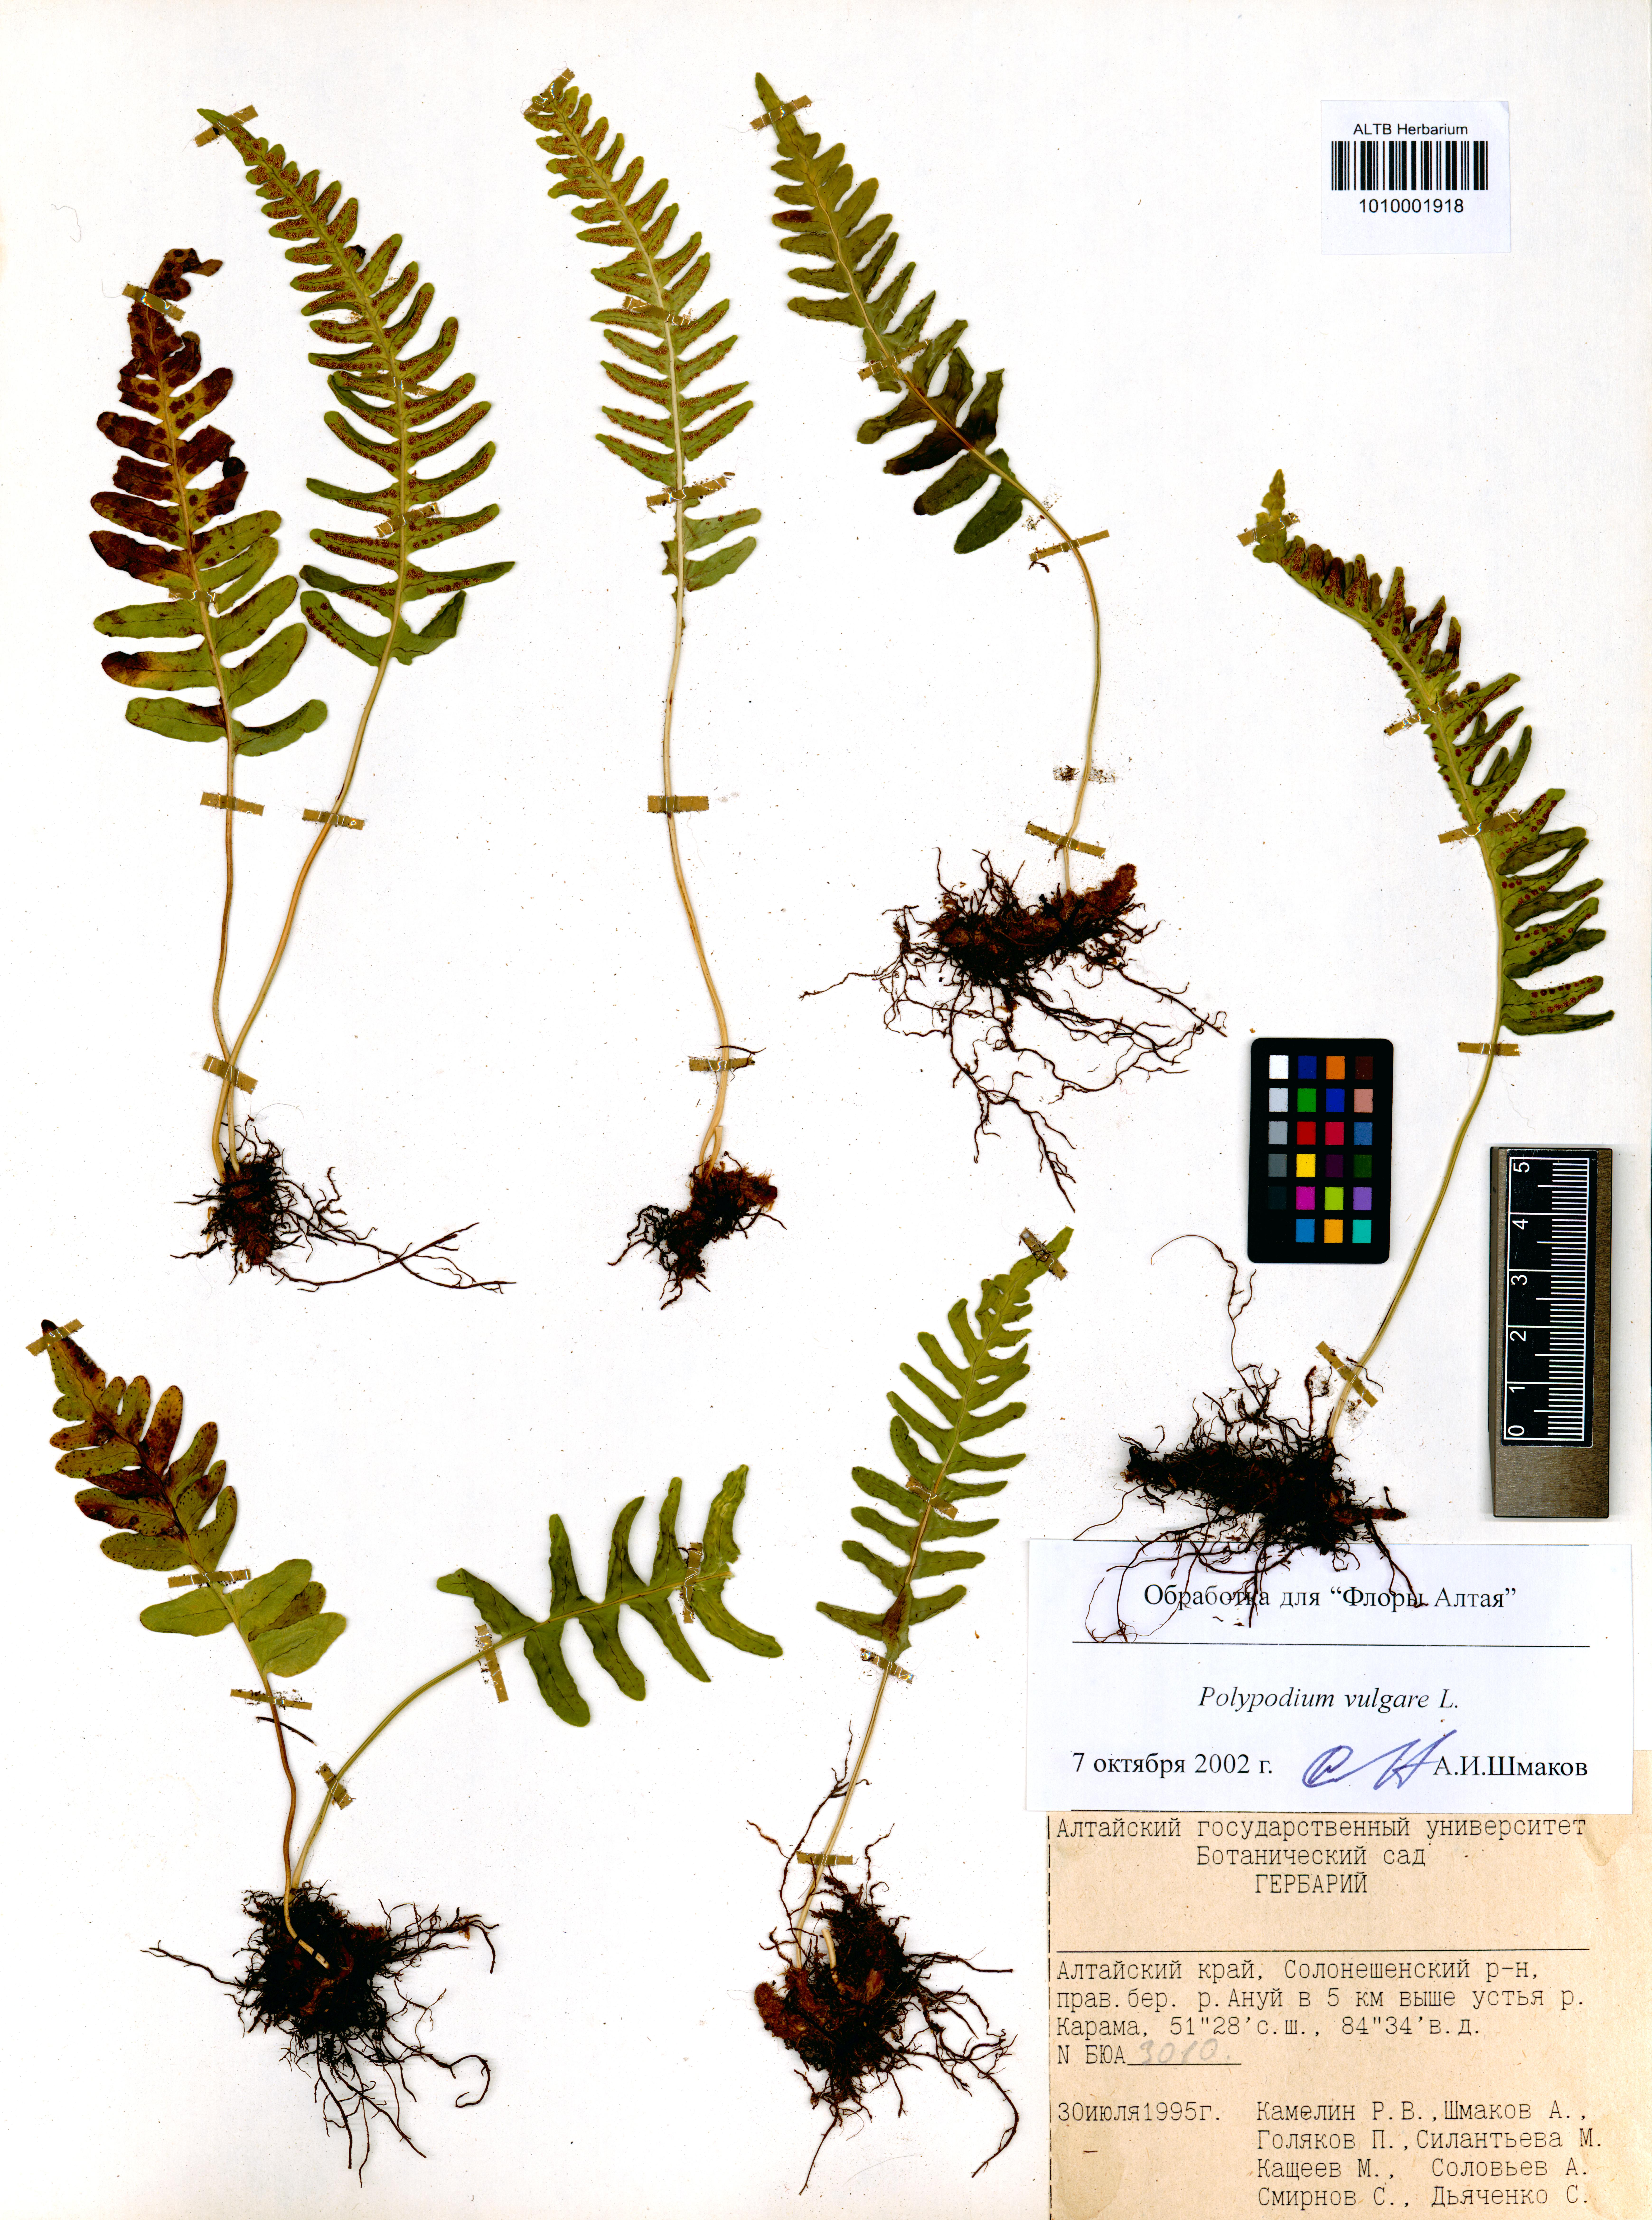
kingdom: Plantae
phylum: Tracheophyta
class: Polypodiopsida
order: Polypodiales
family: Polypodiaceae
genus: Polypodium
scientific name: Polypodium vulgare
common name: Common polypody
